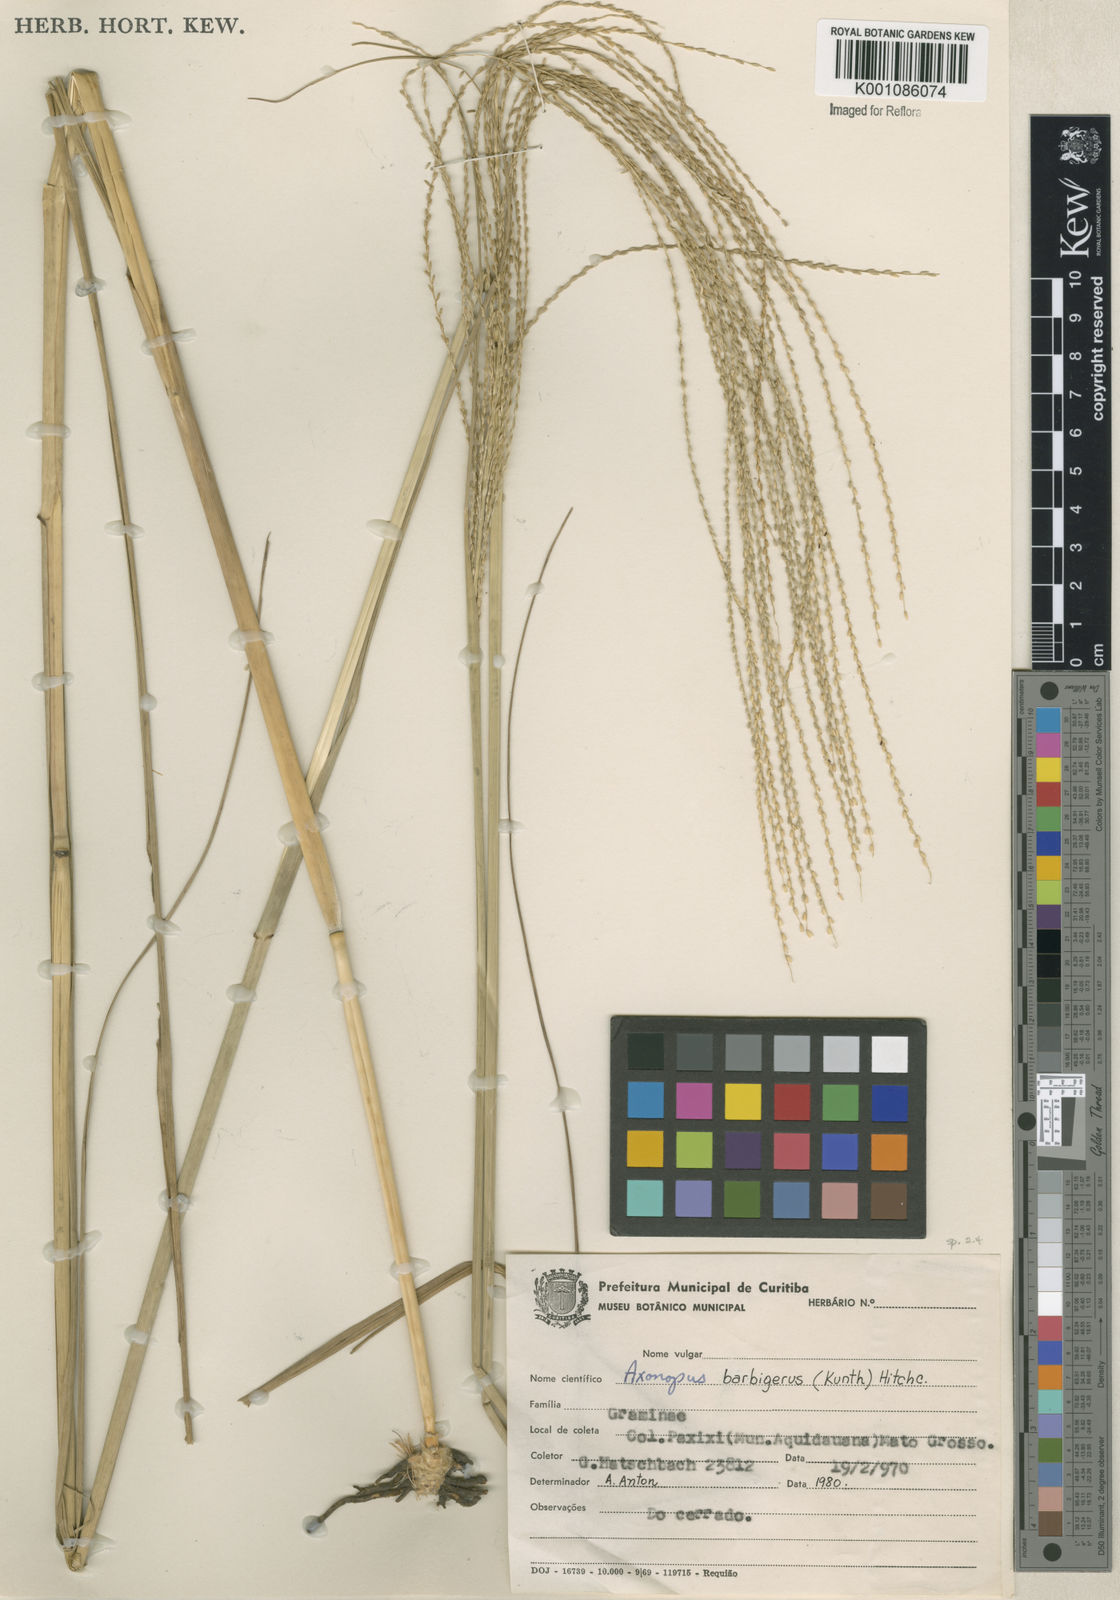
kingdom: Plantae
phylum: Tracheophyta
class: Liliopsida
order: Poales
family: Poaceae
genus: Axonopus
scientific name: Axonopus siccus
